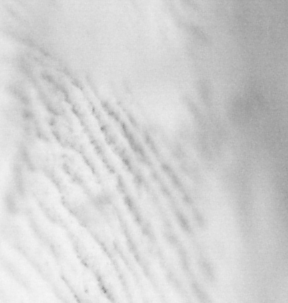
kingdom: Animalia
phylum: Chordata
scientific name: Chordata
